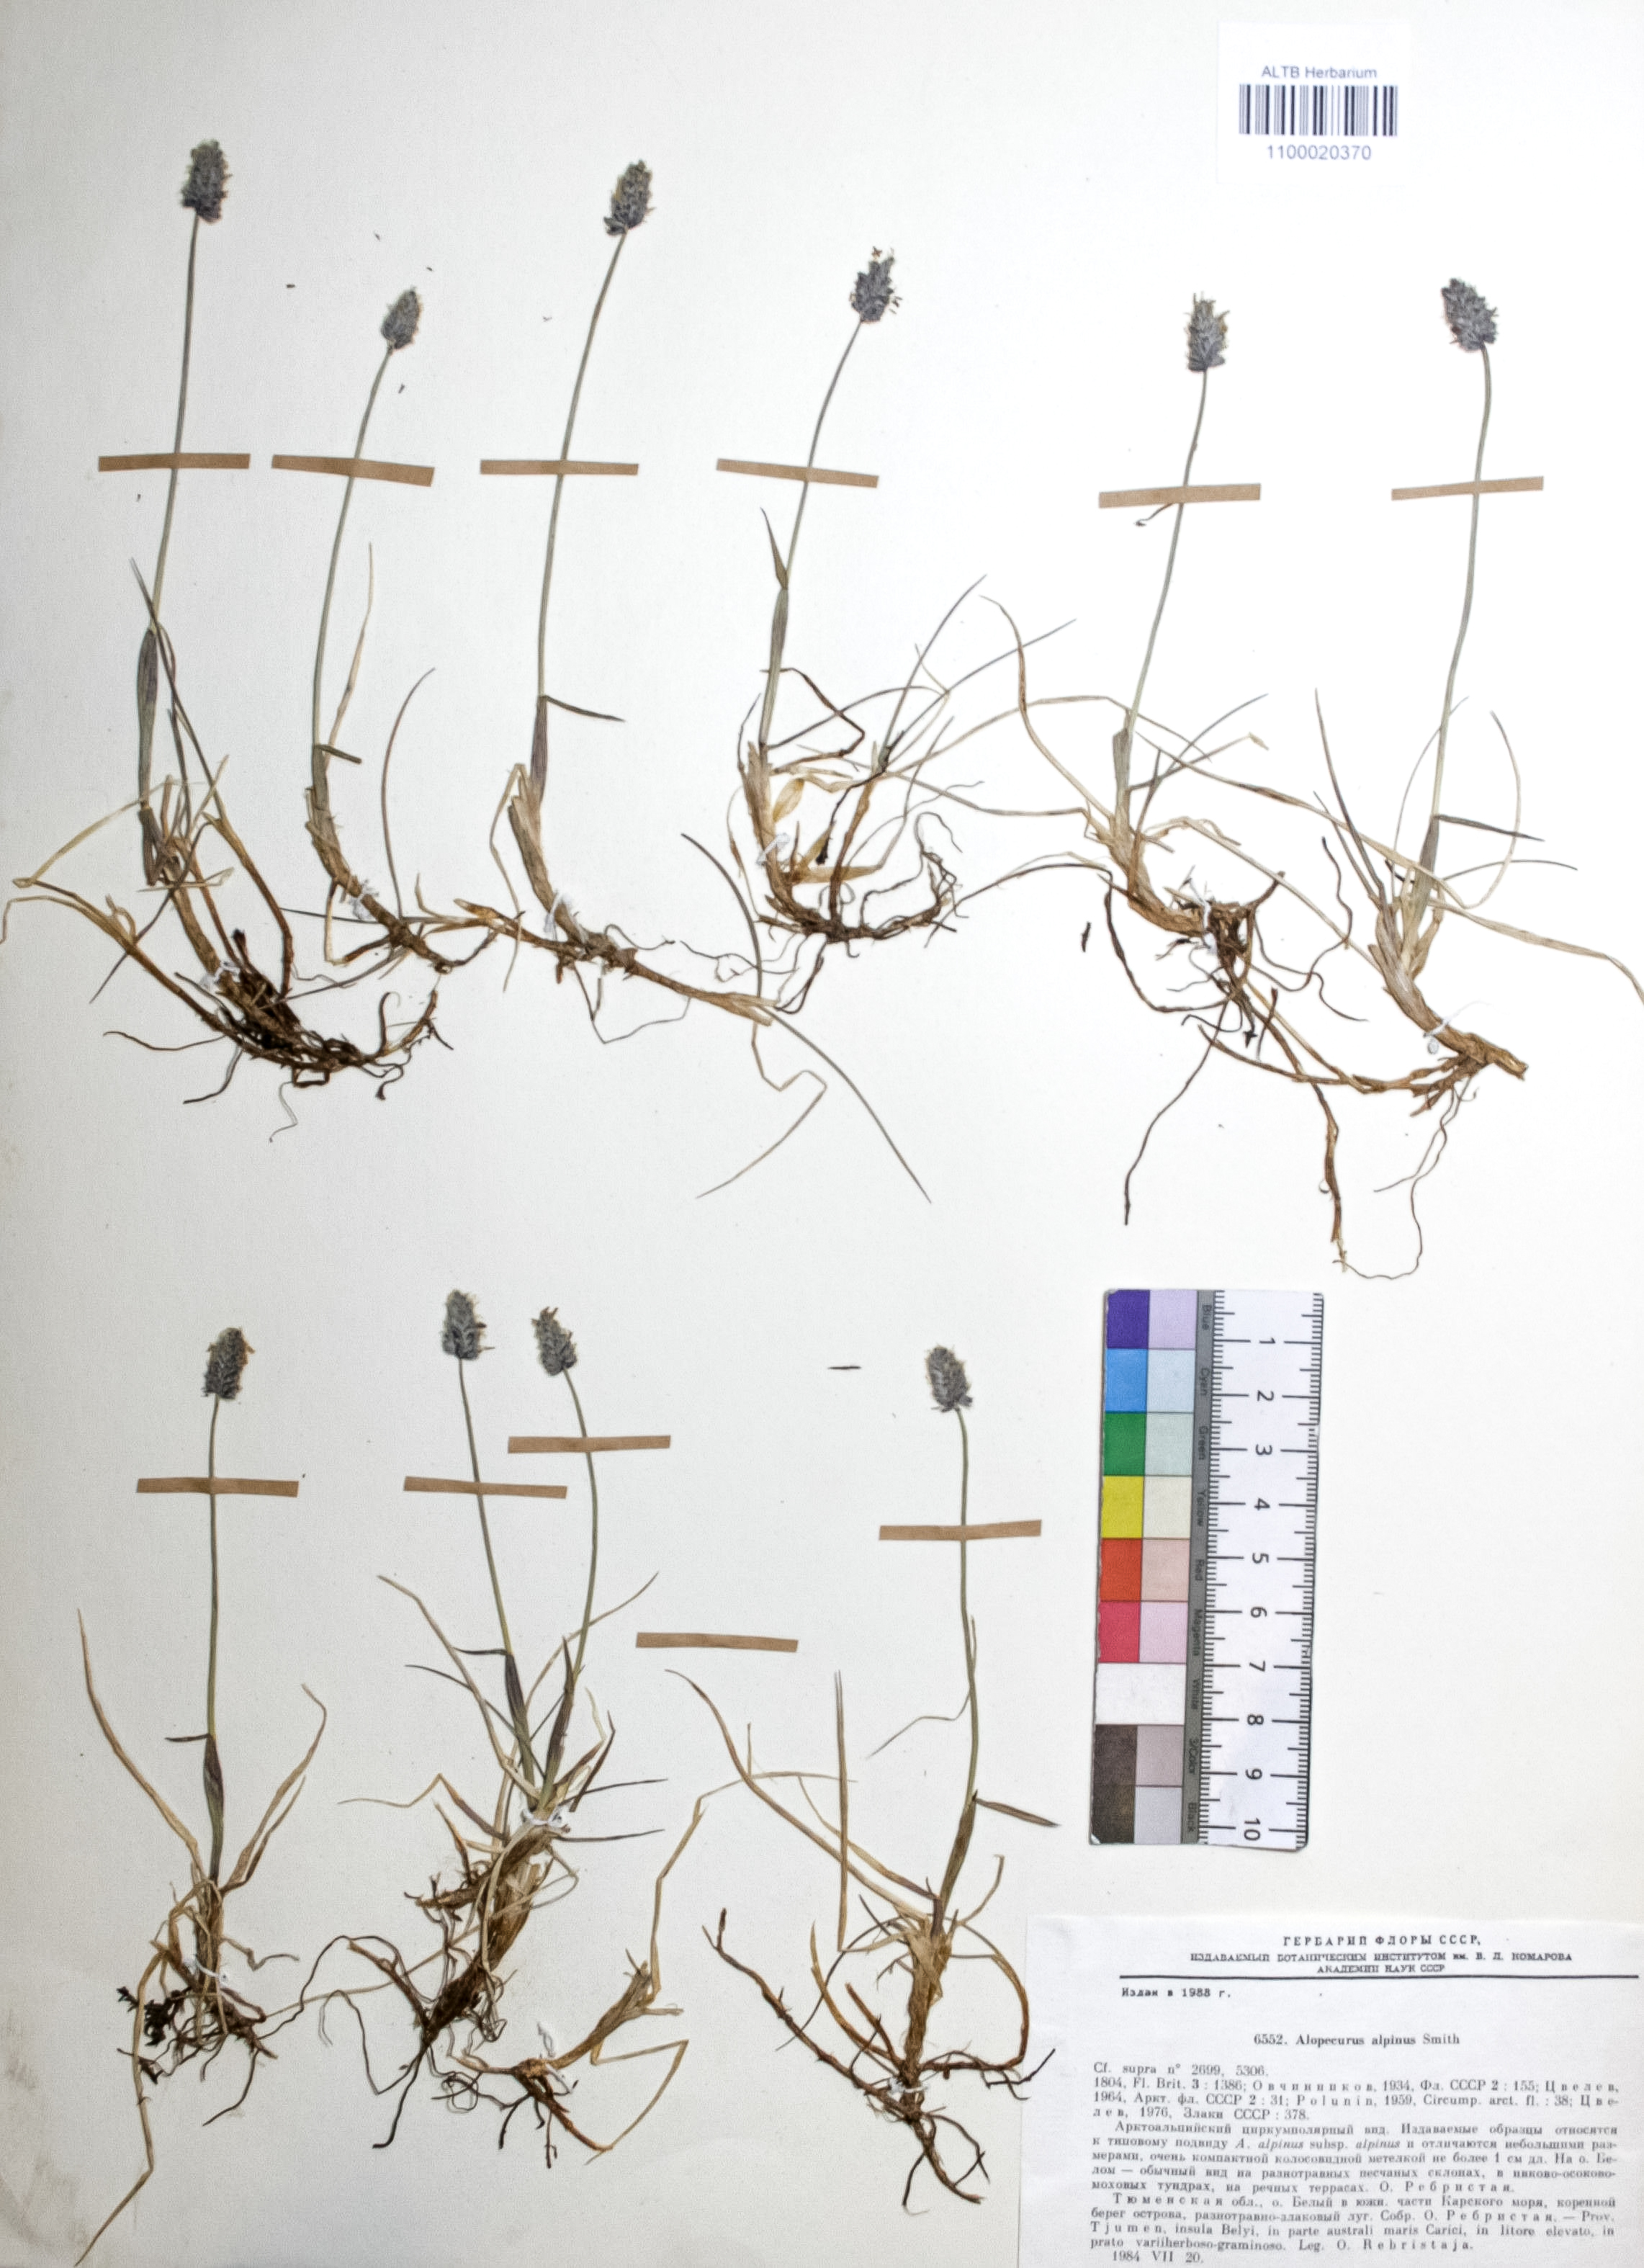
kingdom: Plantae
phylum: Tracheophyta
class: Liliopsida
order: Poales
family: Poaceae
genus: Alopecurus
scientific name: Alopecurus magellanicus
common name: Alpine foxtail
